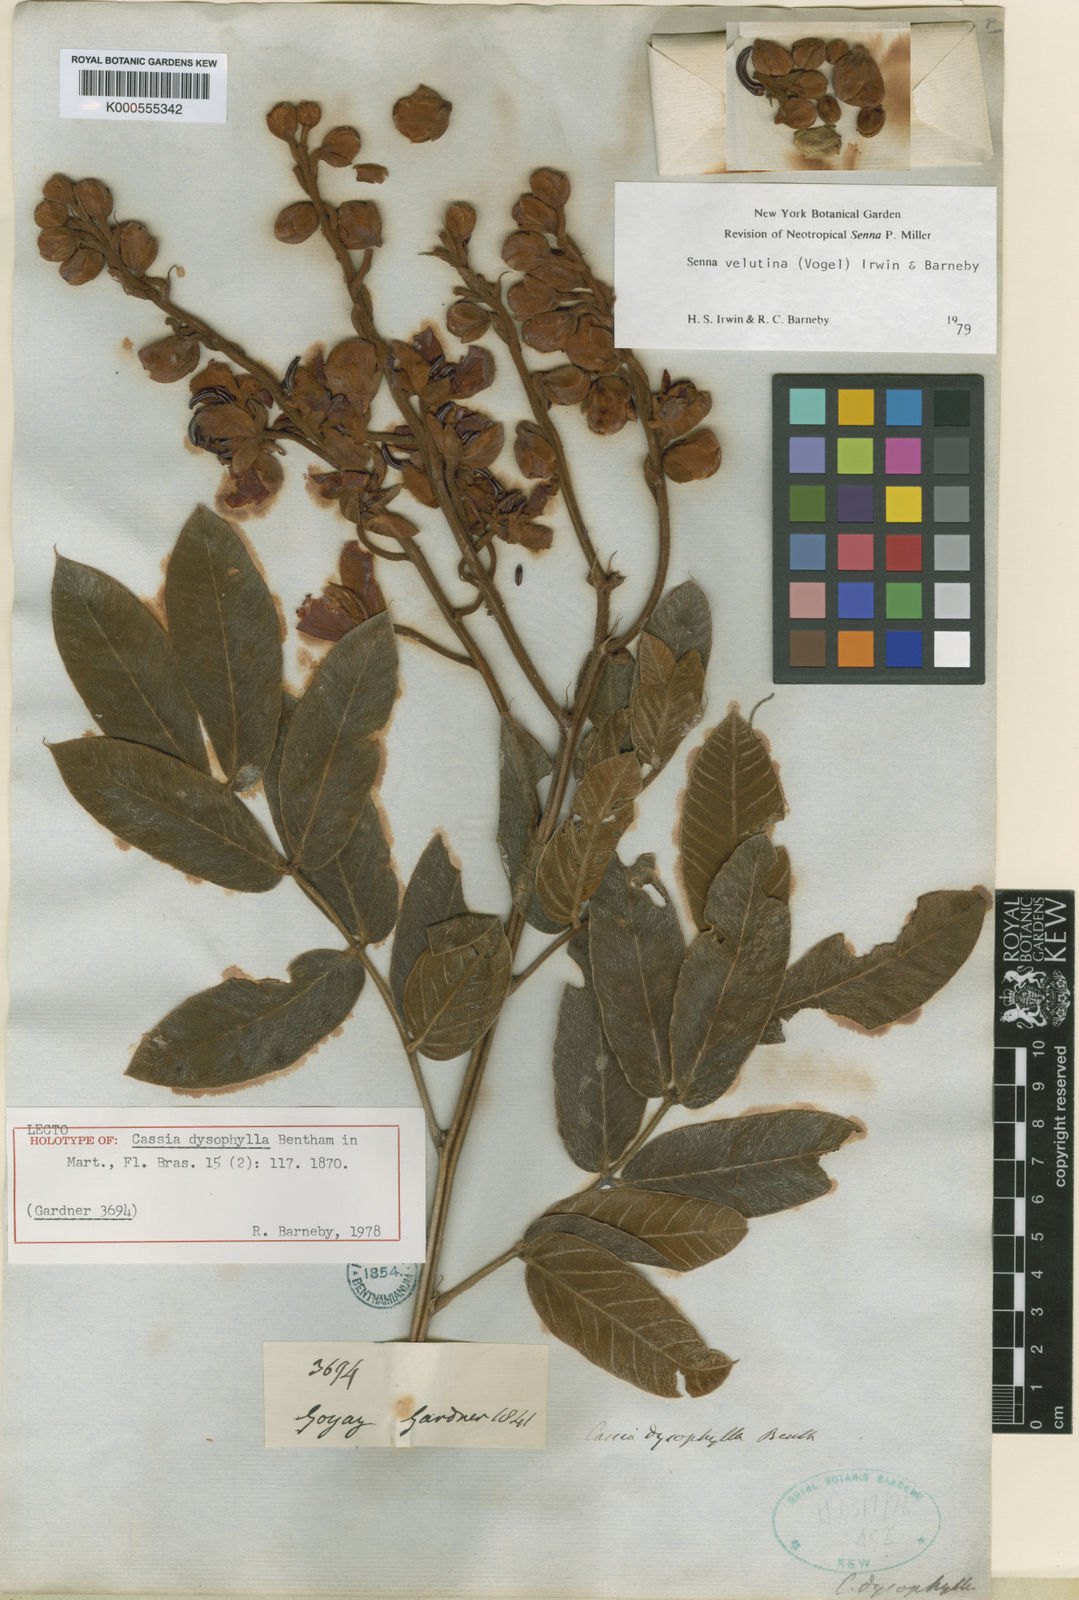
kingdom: Plantae
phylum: Tracheophyta
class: Magnoliopsida
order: Fabales
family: Fabaceae
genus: Senna
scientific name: Senna velutina
